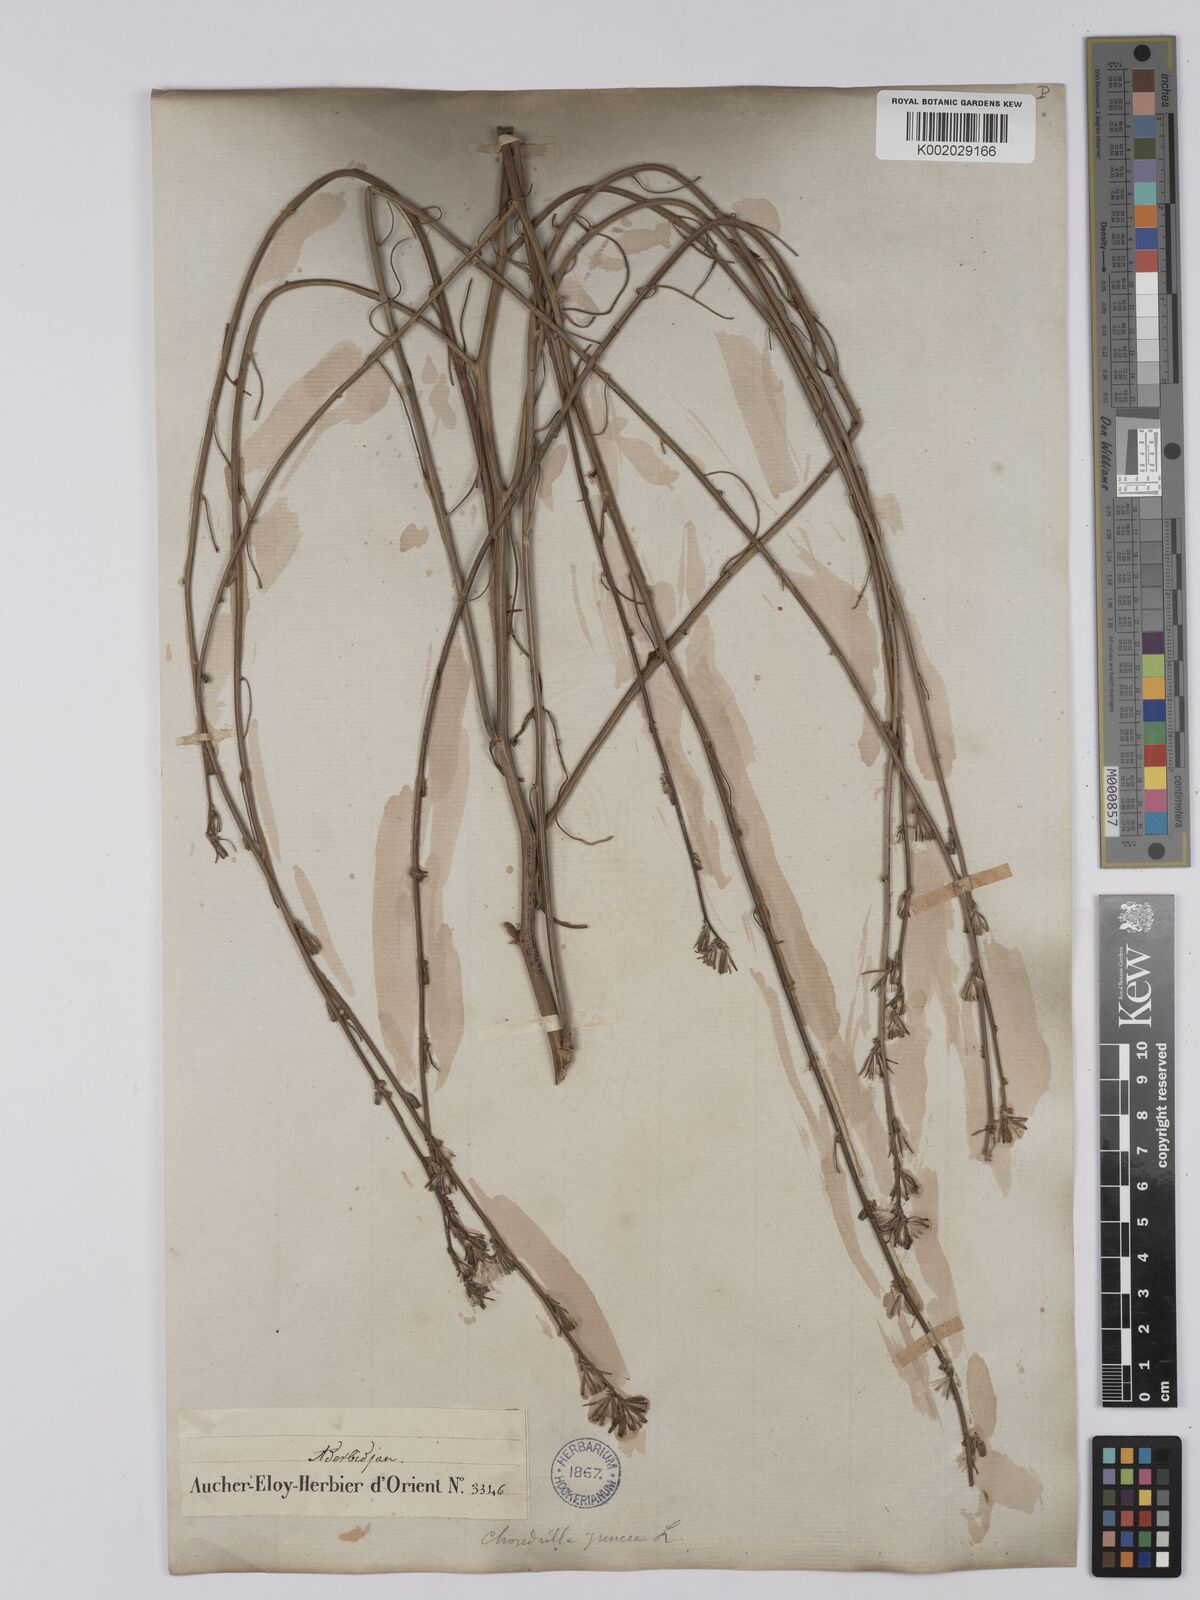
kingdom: Plantae
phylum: Tracheophyta
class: Magnoliopsida
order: Asterales
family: Asteraceae
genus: Chondrilla
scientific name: Chondrilla juncea
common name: Skeleton weed
